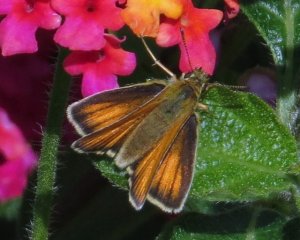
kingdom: Animalia
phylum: Arthropoda
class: Insecta
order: Lepidoptera
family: Hesperiidae
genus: Thymelicus
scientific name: Thymelicus lineola
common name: European Skipper
